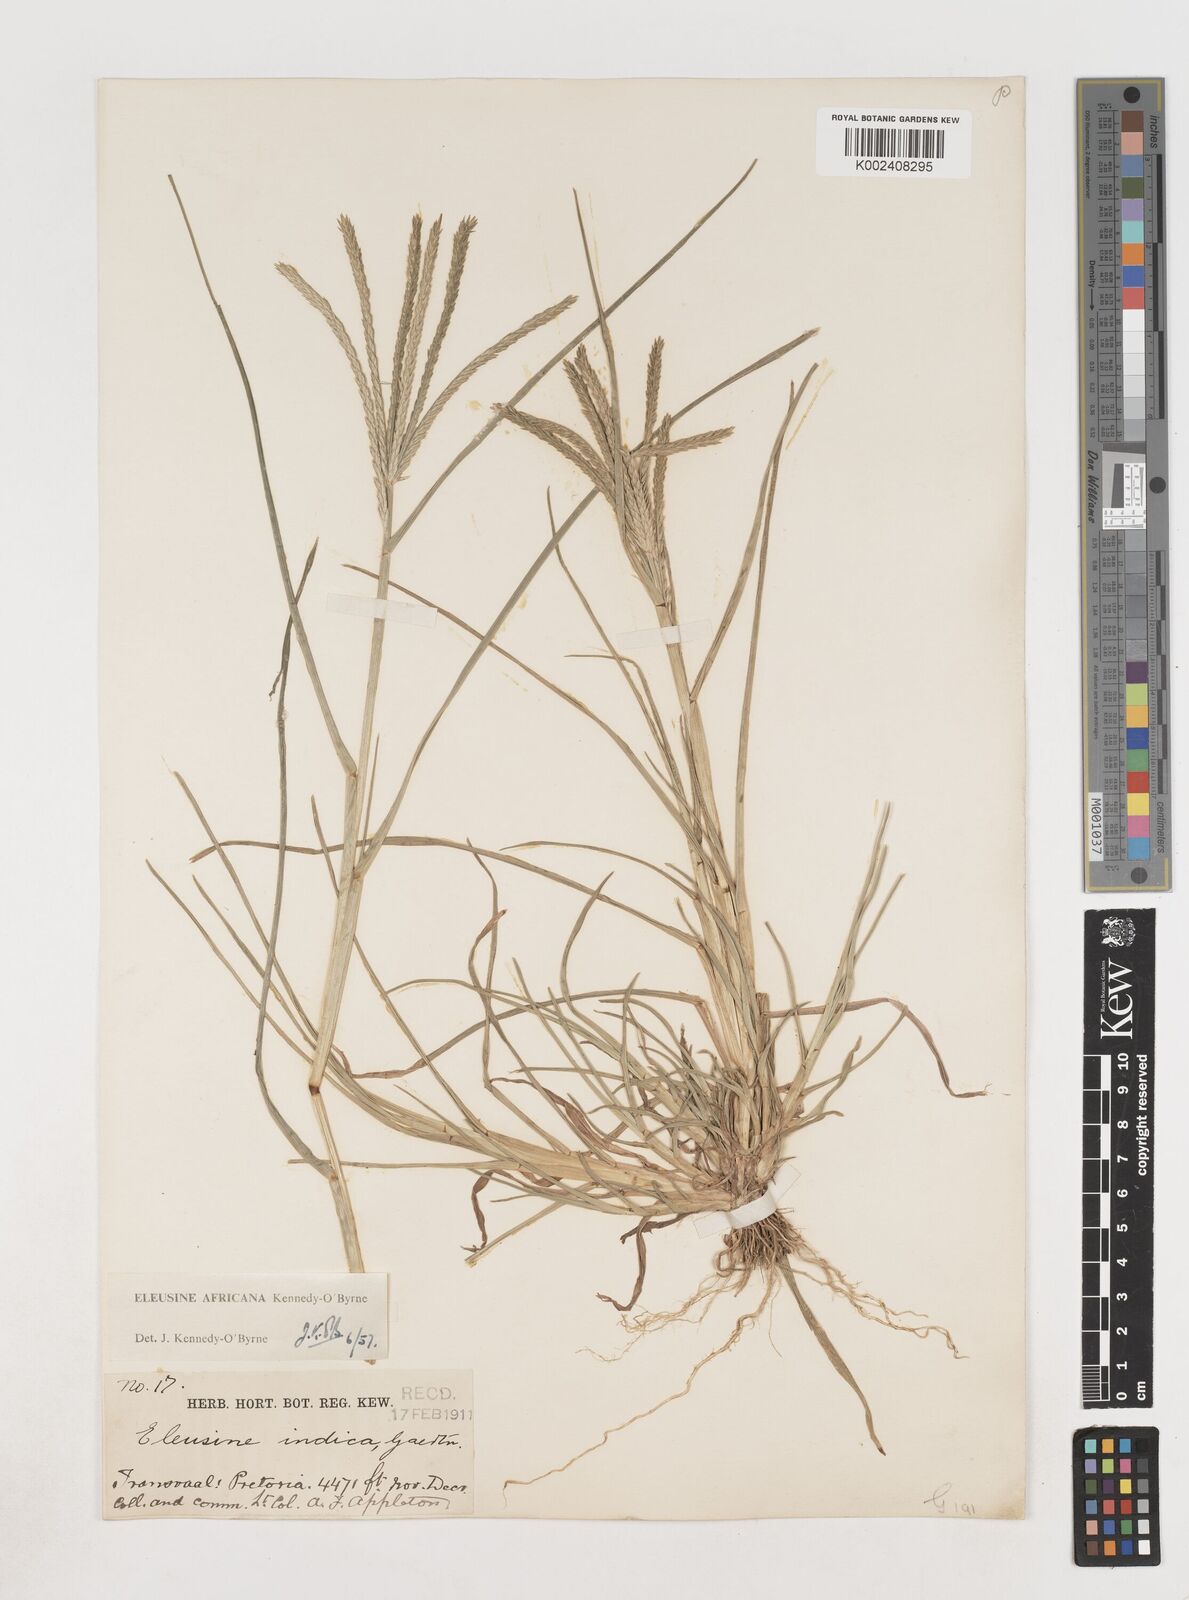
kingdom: Plantae
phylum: Tracheophyta
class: Liliopsida
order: Poales
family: Poaceae
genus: Eleusine
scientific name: Eleusine africana
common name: Wild african finger millet
